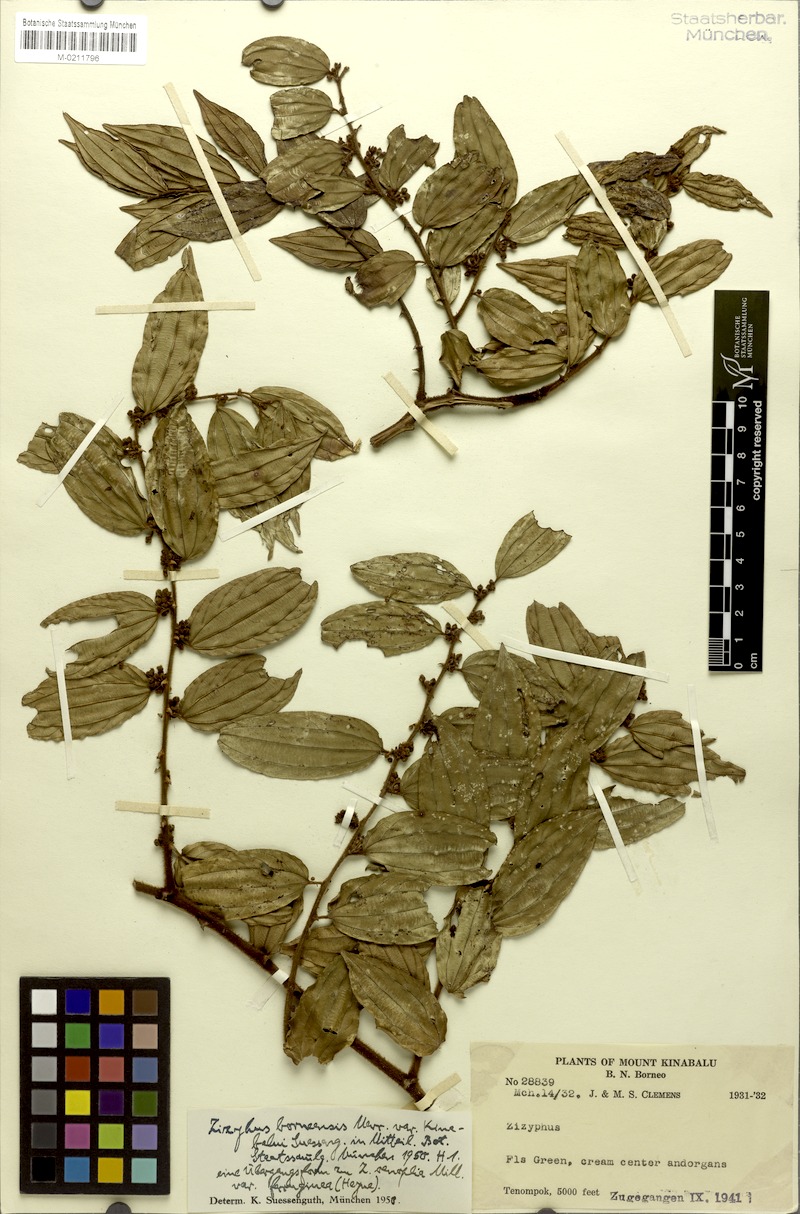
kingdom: Plantae
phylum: Tracheophyta
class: Magnoliopsida
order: Rosales
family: Rhamnaceae
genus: Ziziphus
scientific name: Ziziphus havilandii
